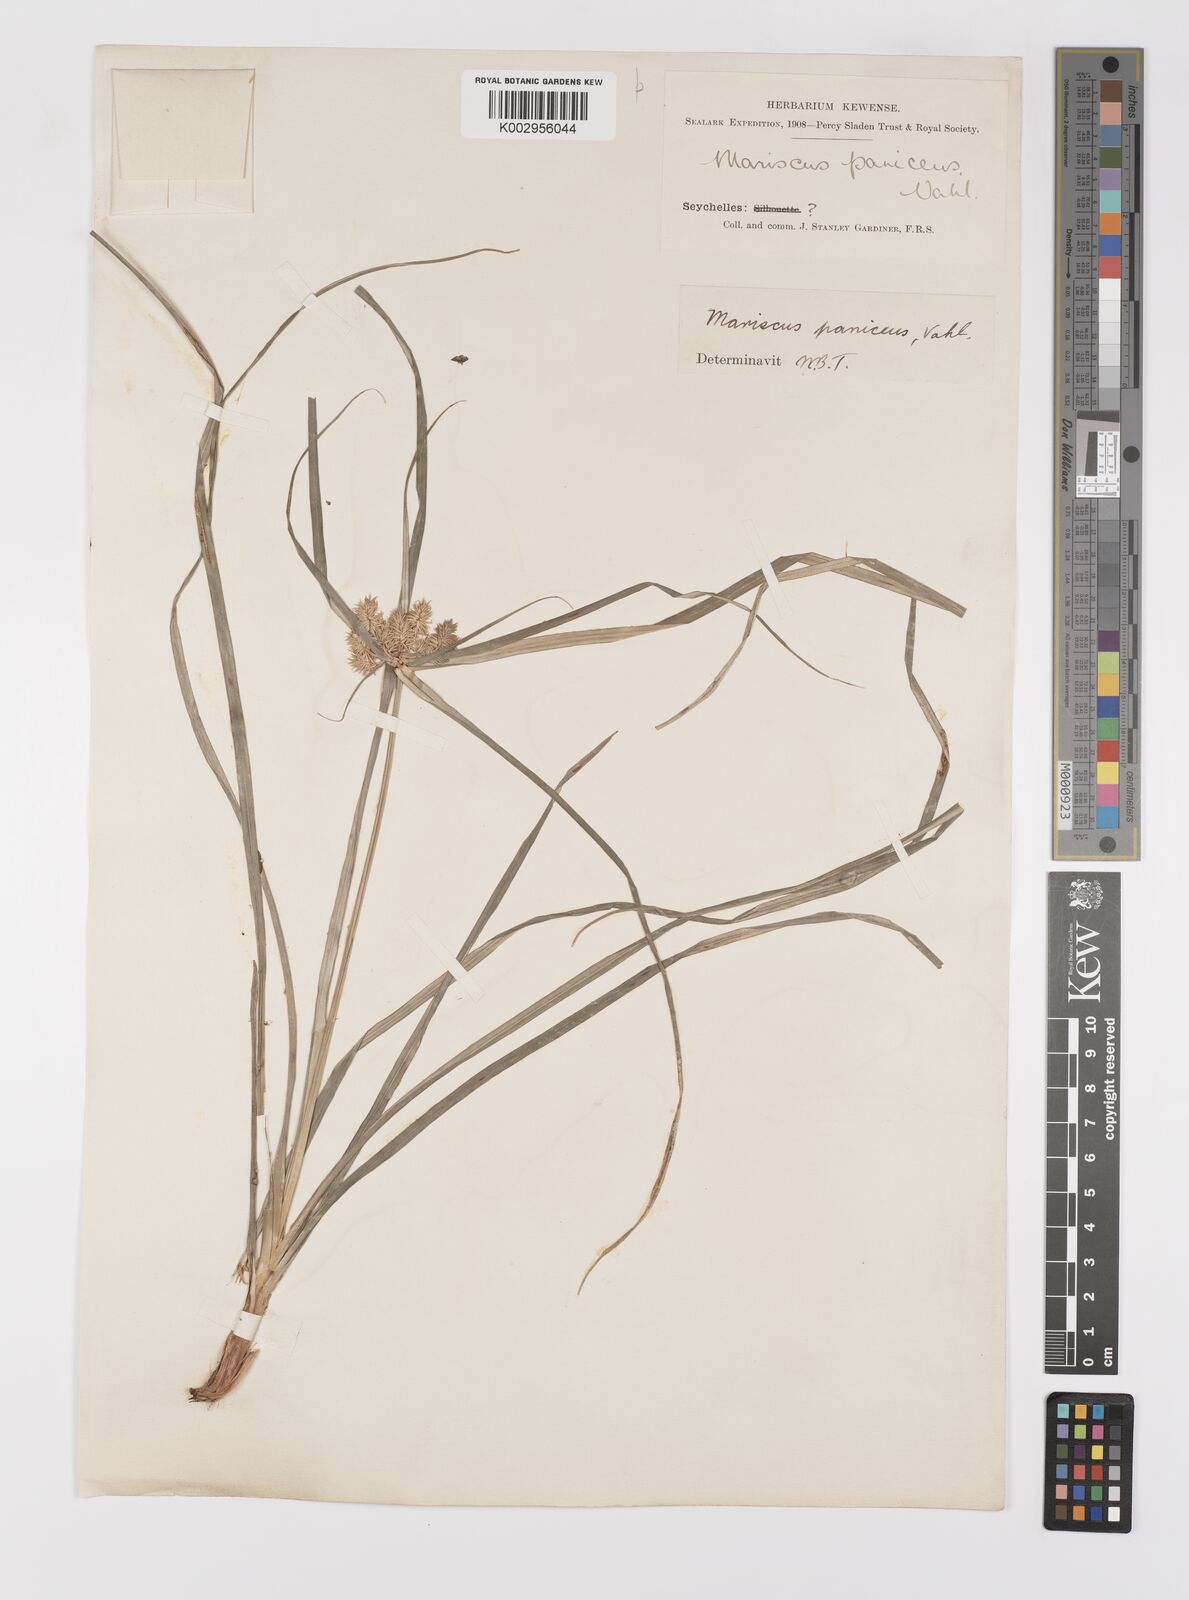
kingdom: Plantae
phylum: Tracheophyta
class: Liliopsida
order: Poales
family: Cyperaceae
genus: Cyperus
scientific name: Cyperus paniceus
